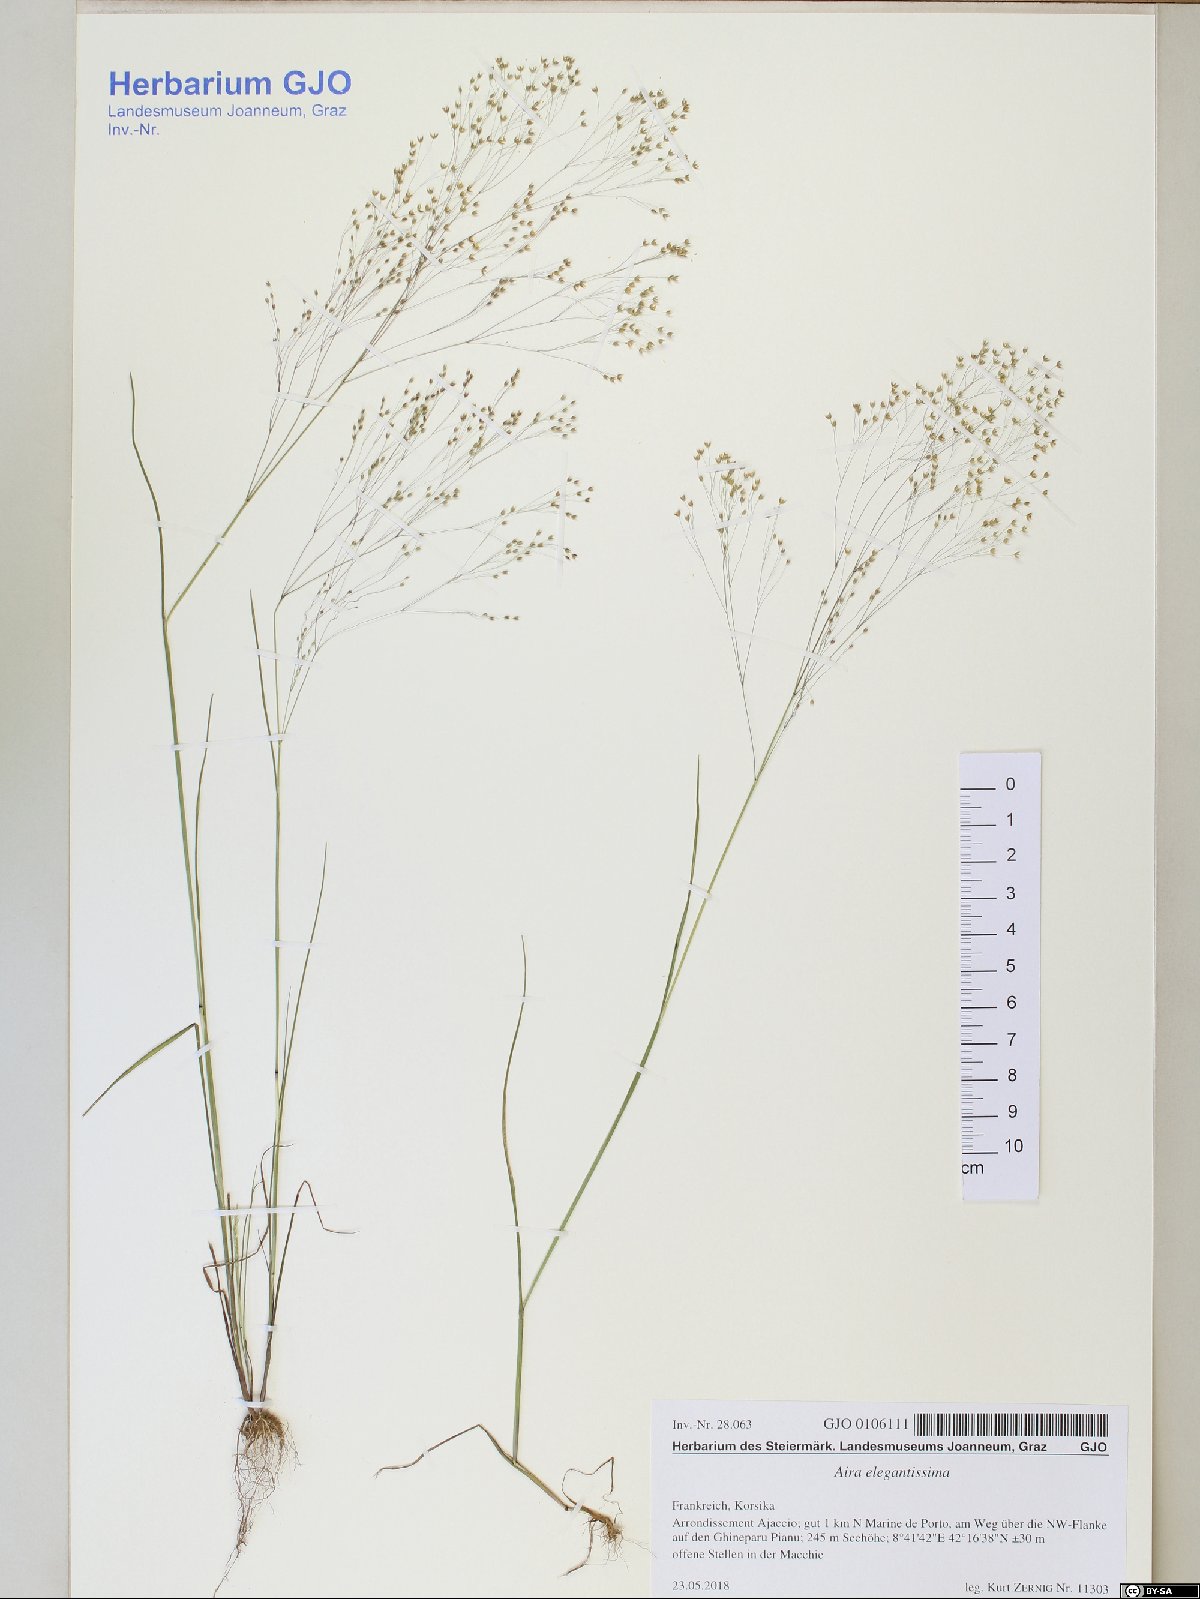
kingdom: Plantae
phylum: Tracheophyta
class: Liliopsida
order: Poales
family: Poaceae
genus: Aira
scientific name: Aira elegans
